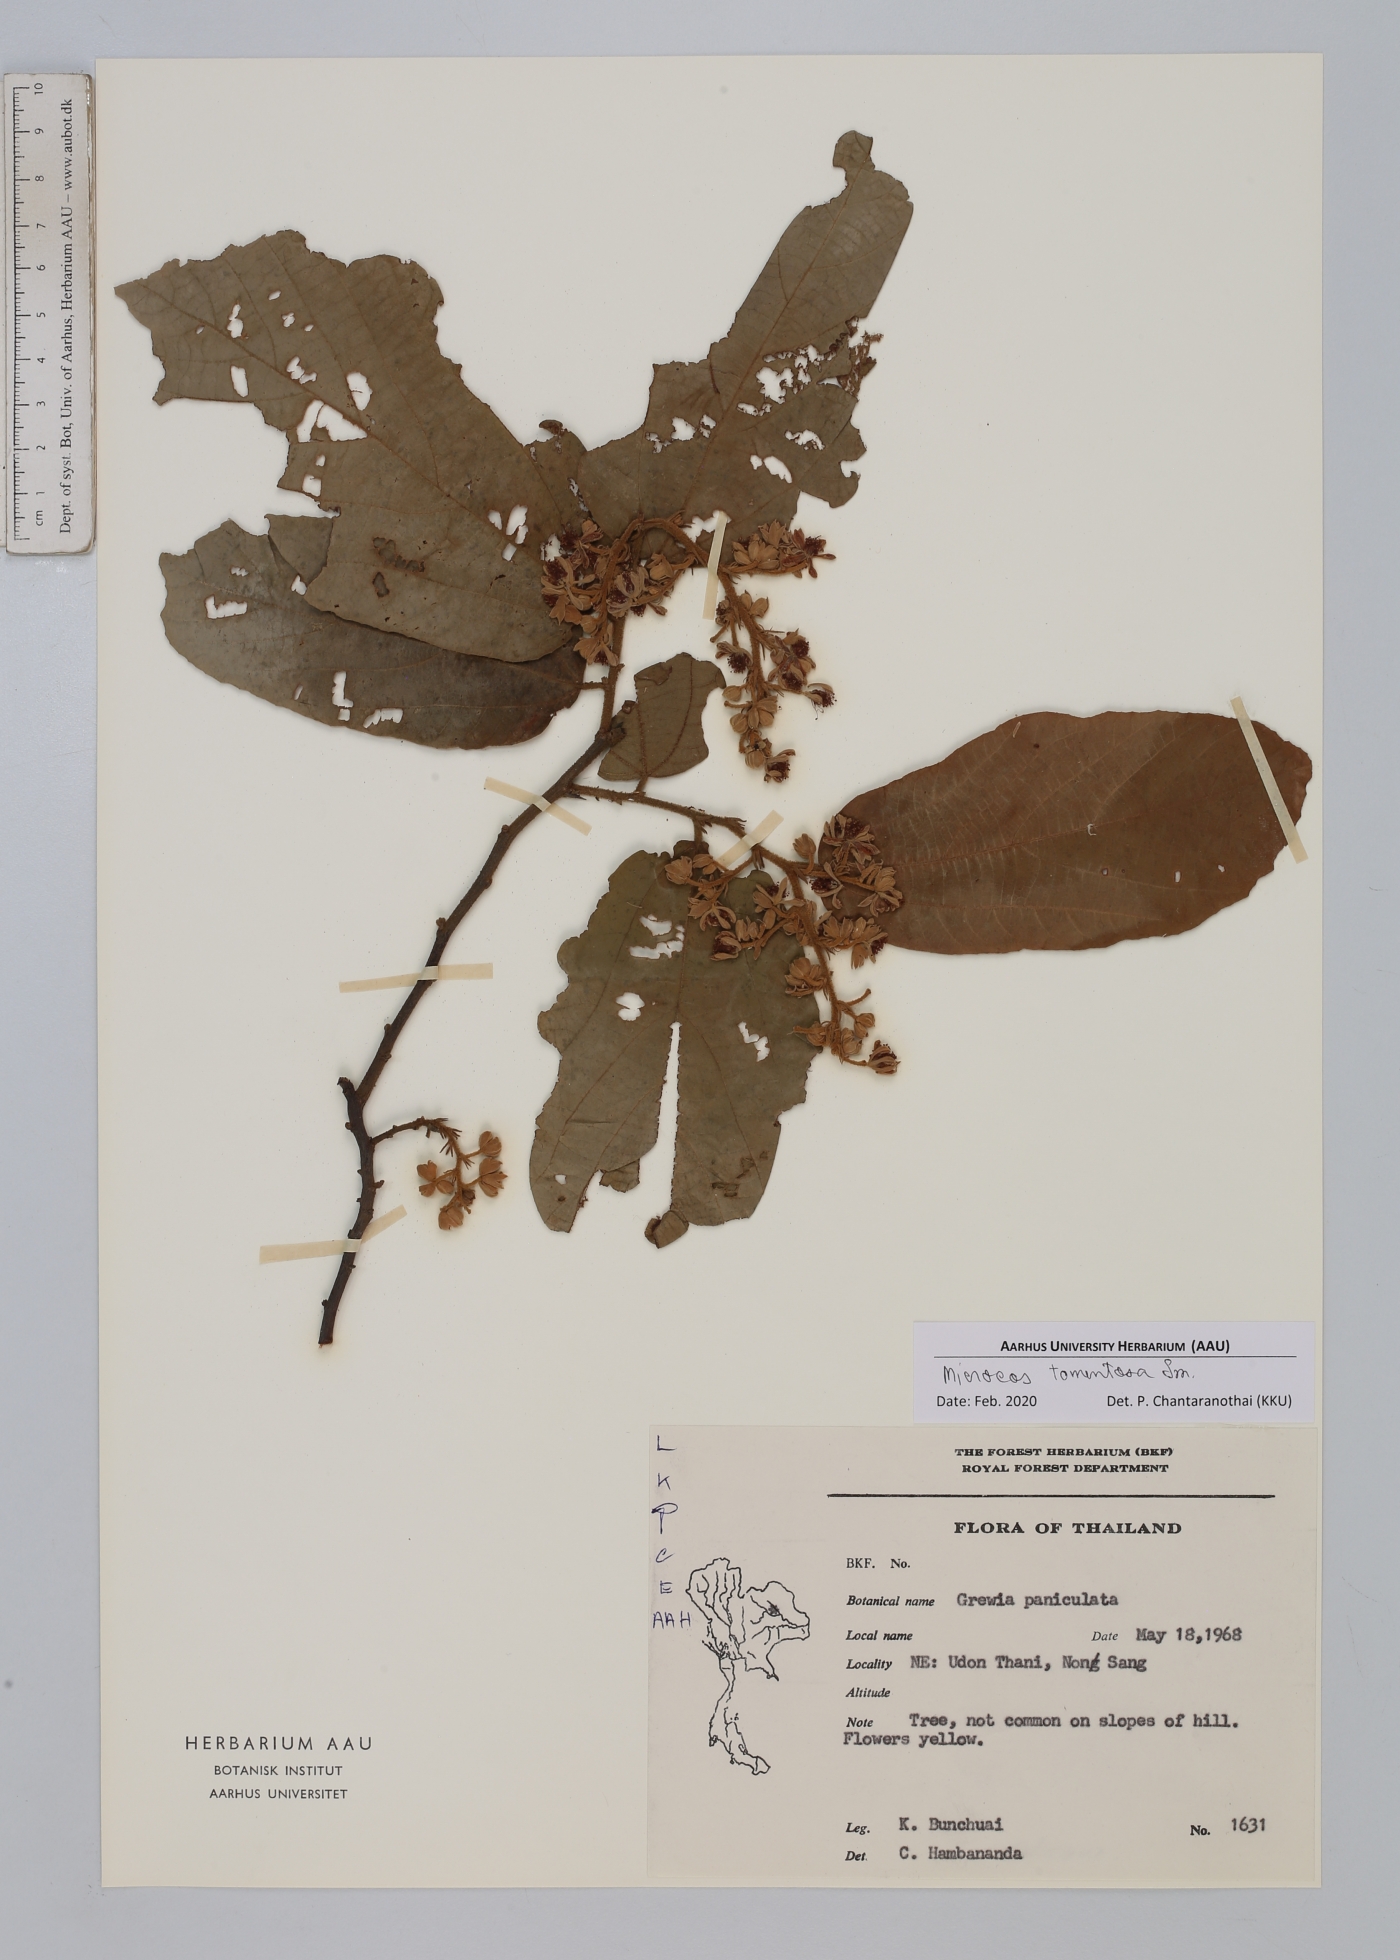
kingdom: Plantae
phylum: Tracheophyta
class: Magnoliopsida
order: Malvales
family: Malvaceae
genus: Microcos
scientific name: Microcos tomentosa
